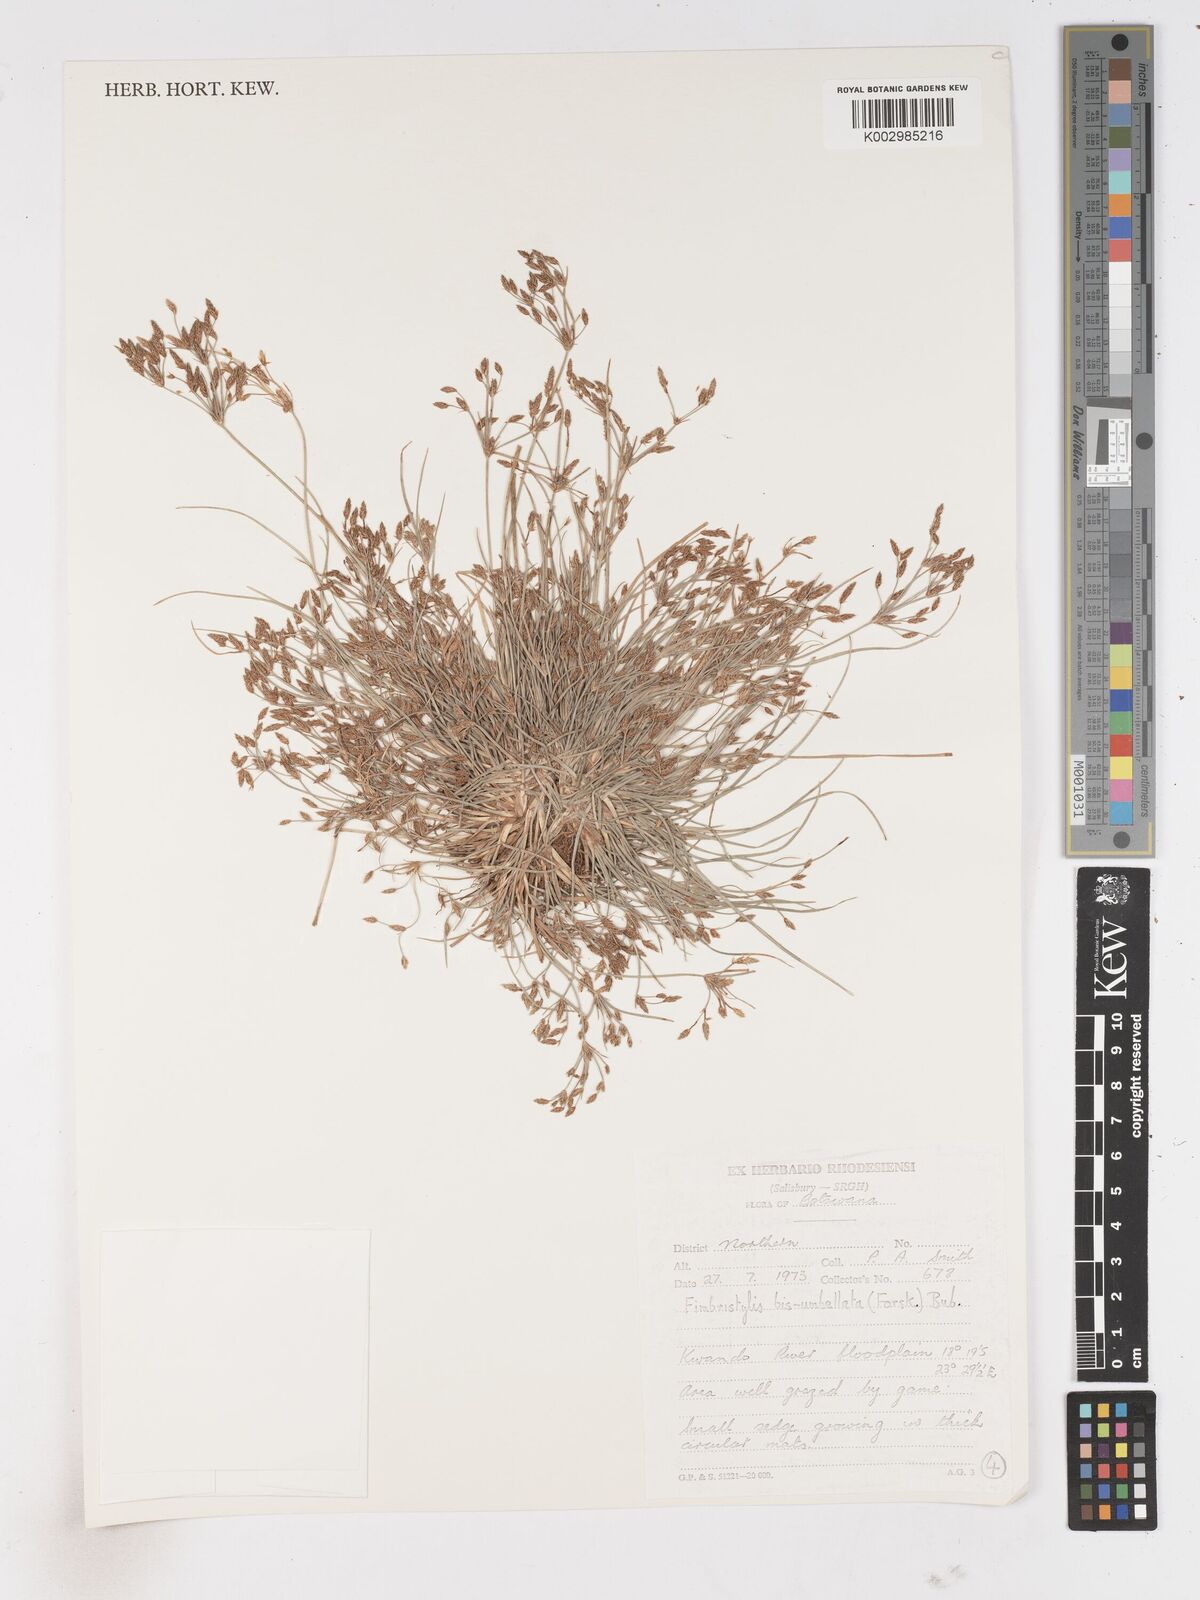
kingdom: Plantae
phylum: Tracheophyta
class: Liliopsida
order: Poales
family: Cyperaceae
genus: Fimbristylis
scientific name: Fimbristylis bisumbellata
